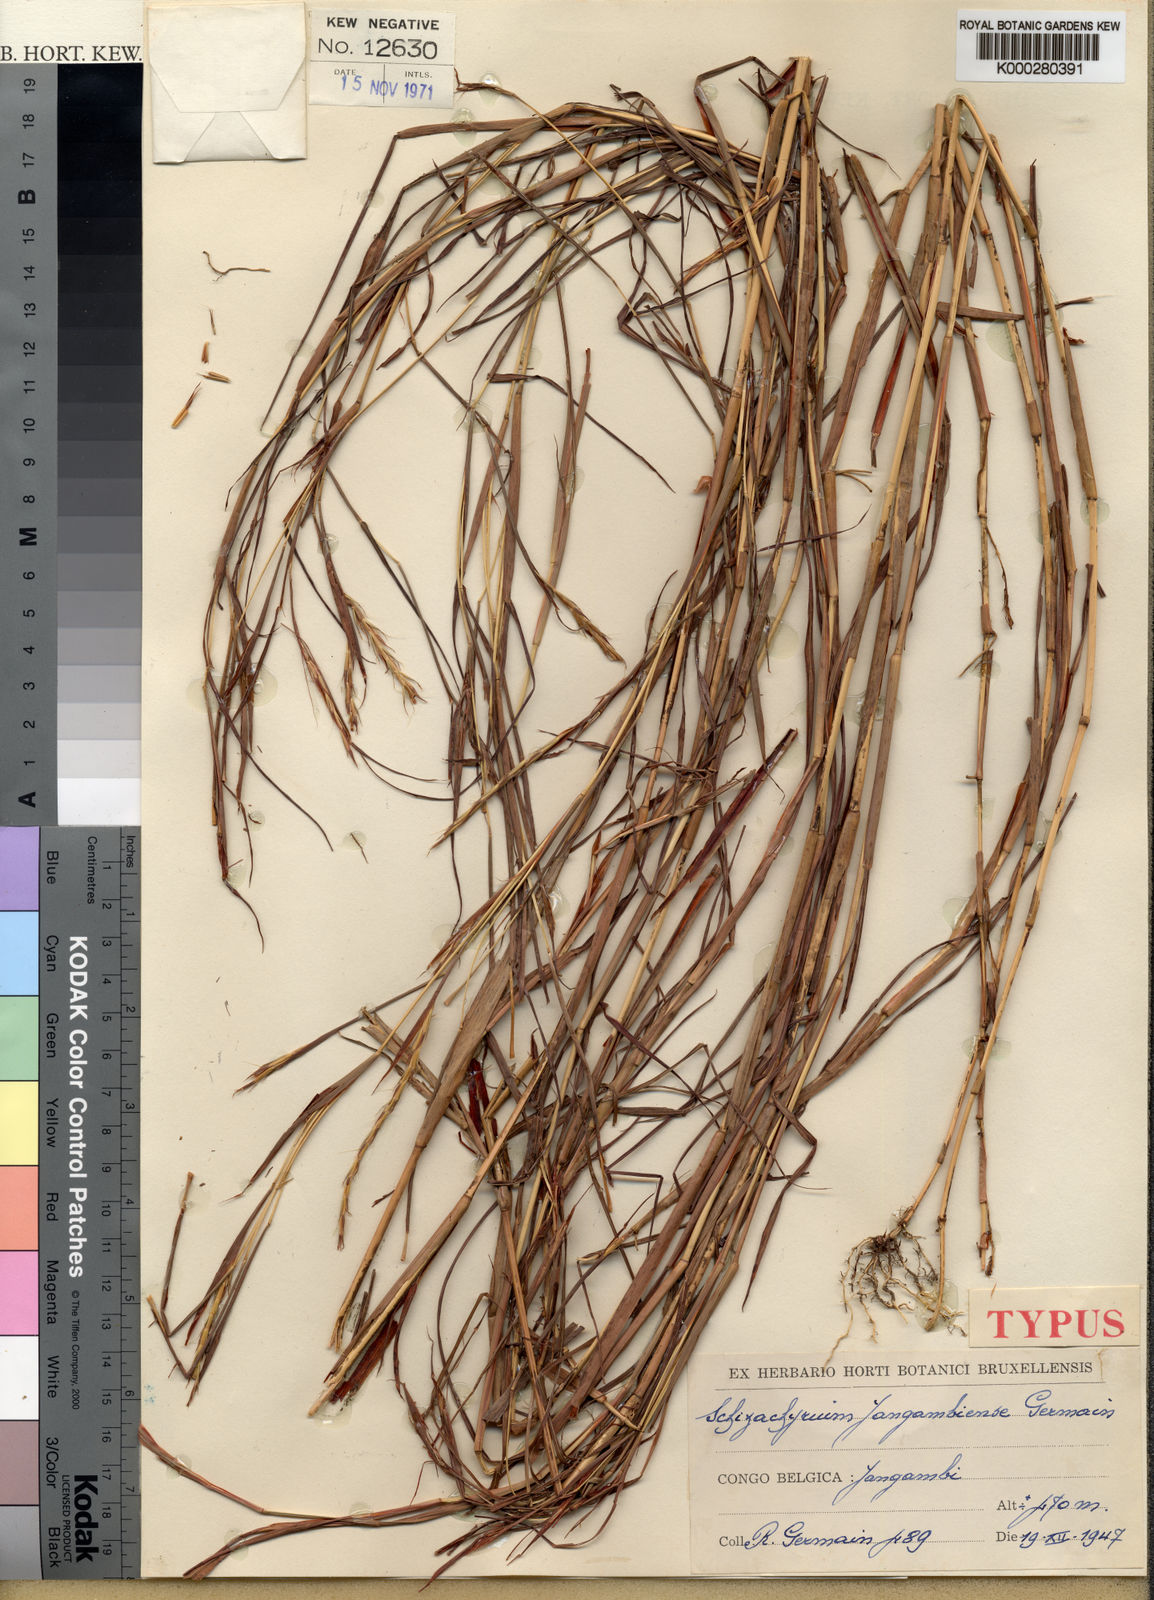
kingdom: Plantae
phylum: Tracheophyta
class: Liliopsida
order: Poales
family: Poaceae
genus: Schizachyrium
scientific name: Schizachyrium yangambiense
